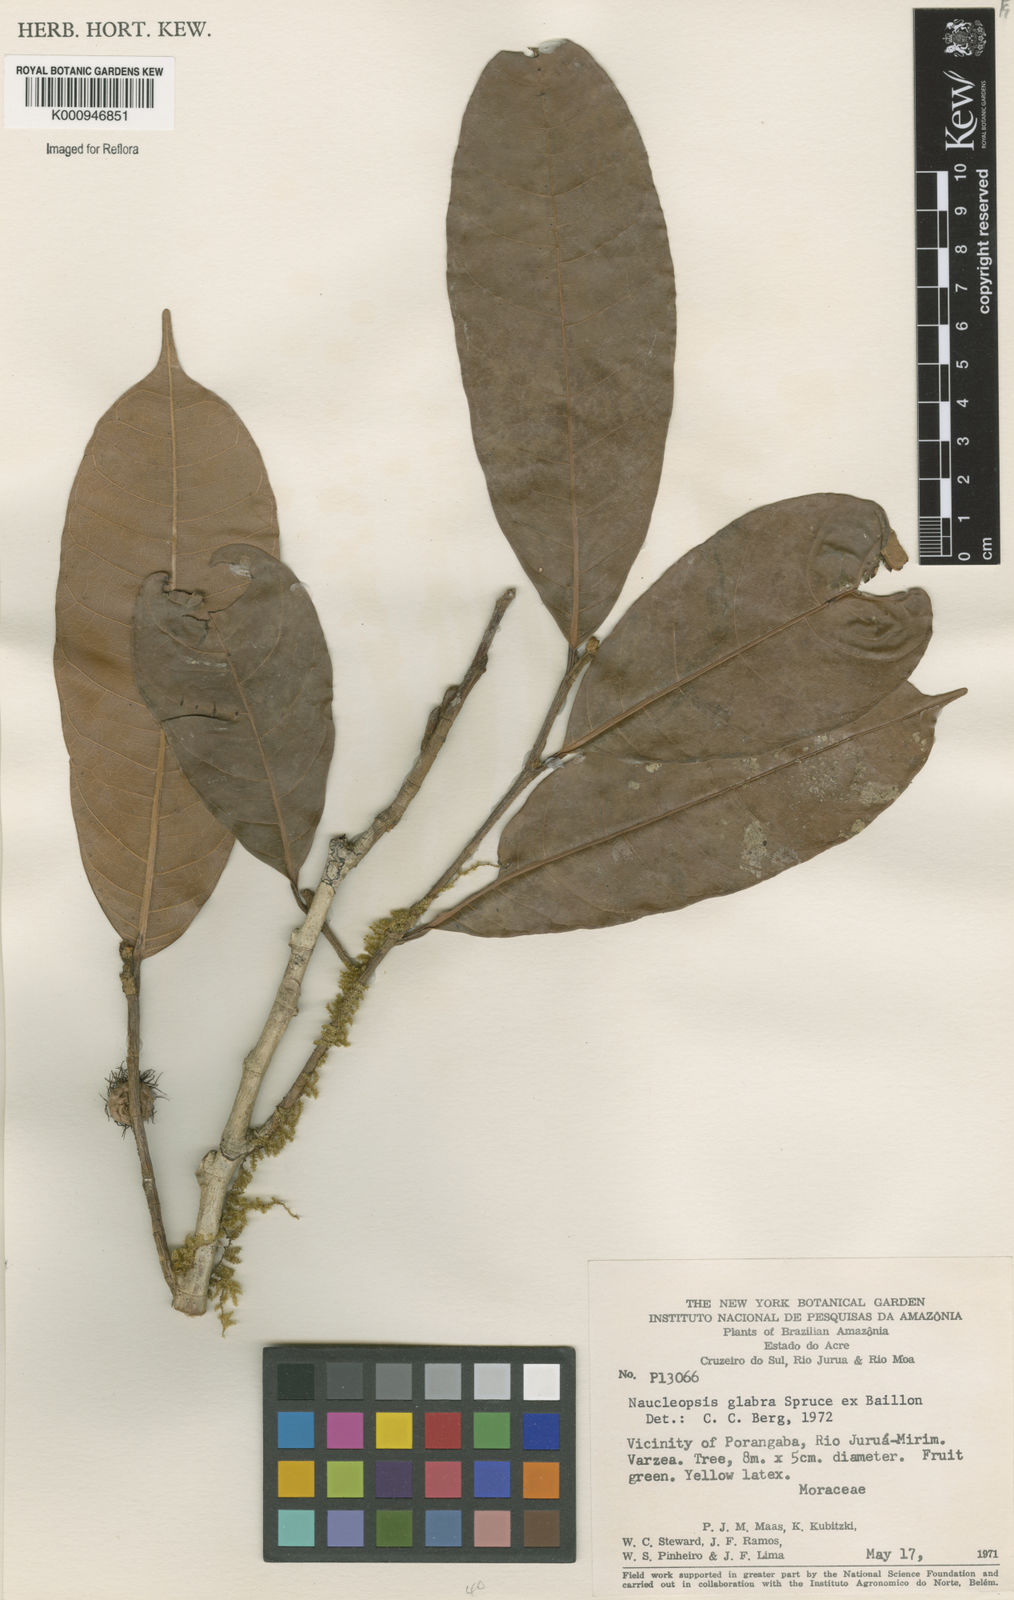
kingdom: Plantae
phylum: Tracheophyta
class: Magnoliopsida
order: Rosales
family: Moraceae
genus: Naucleopsis
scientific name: Naucleopsis glabra
